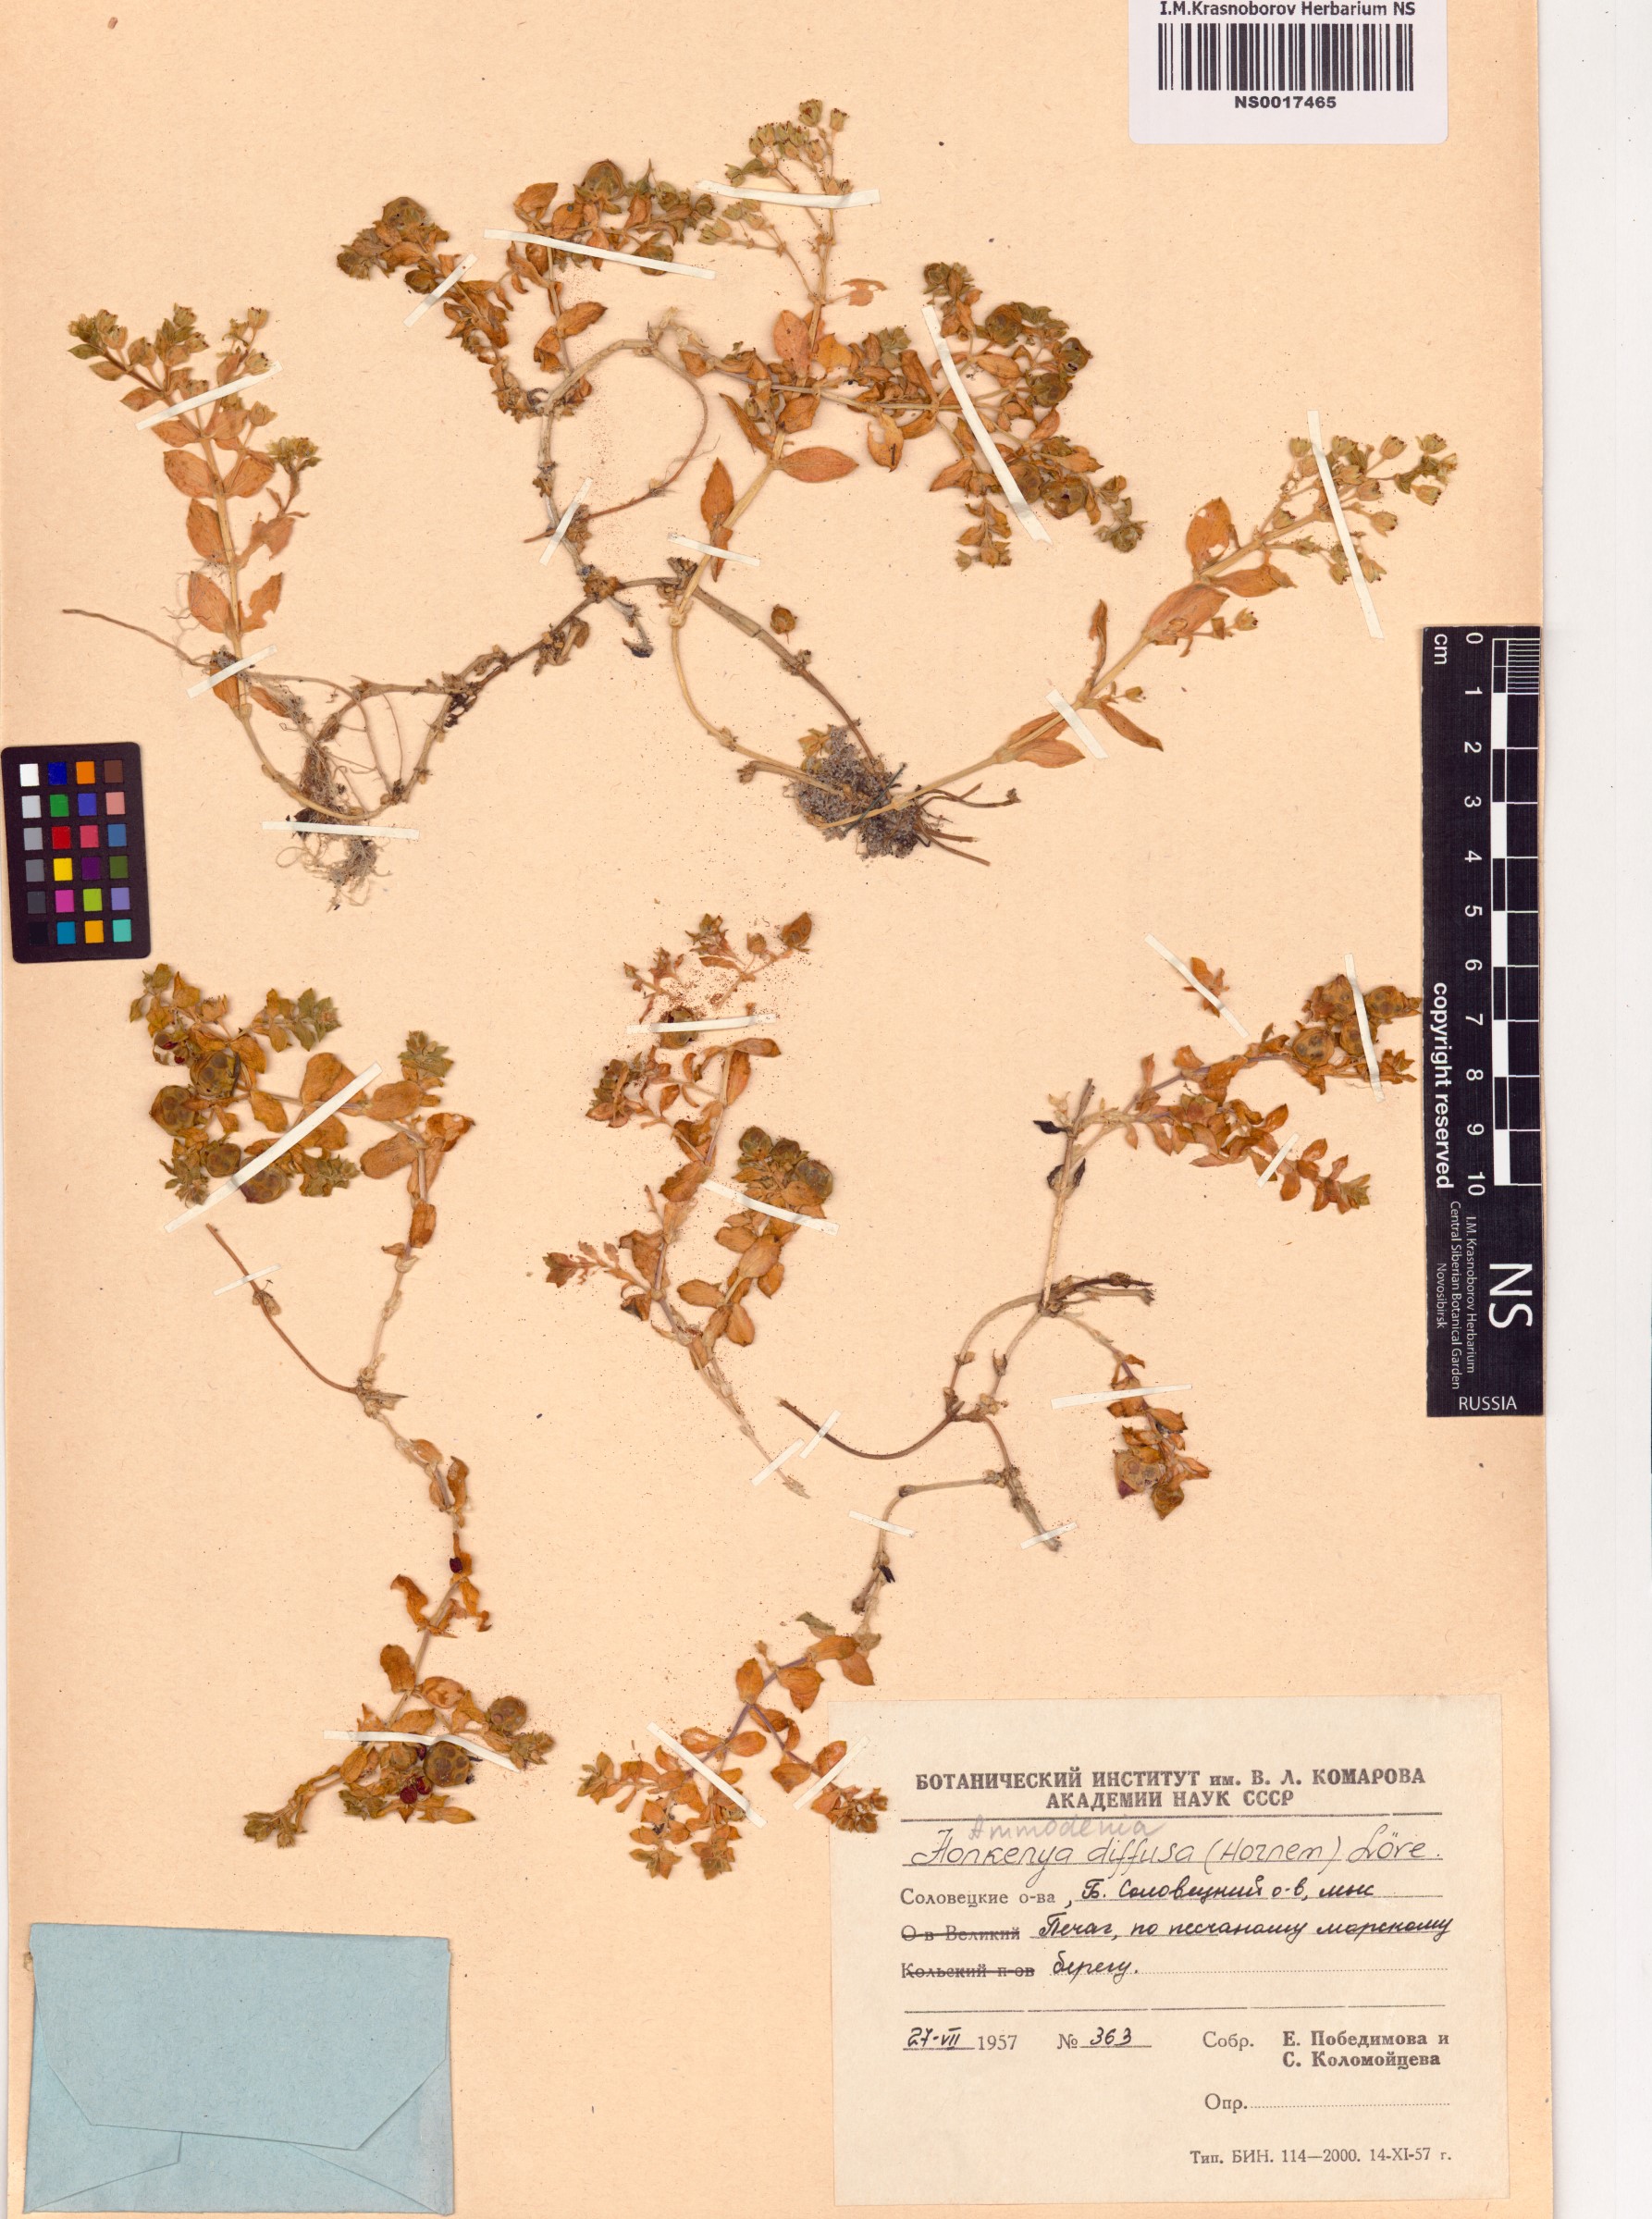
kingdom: Plantae
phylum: Tracheophyta
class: Magnoliopsida
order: Caryophyllales
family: Caryophyllaceae
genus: Honckenya
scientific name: Honckenya peploides
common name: Sea sandwort
